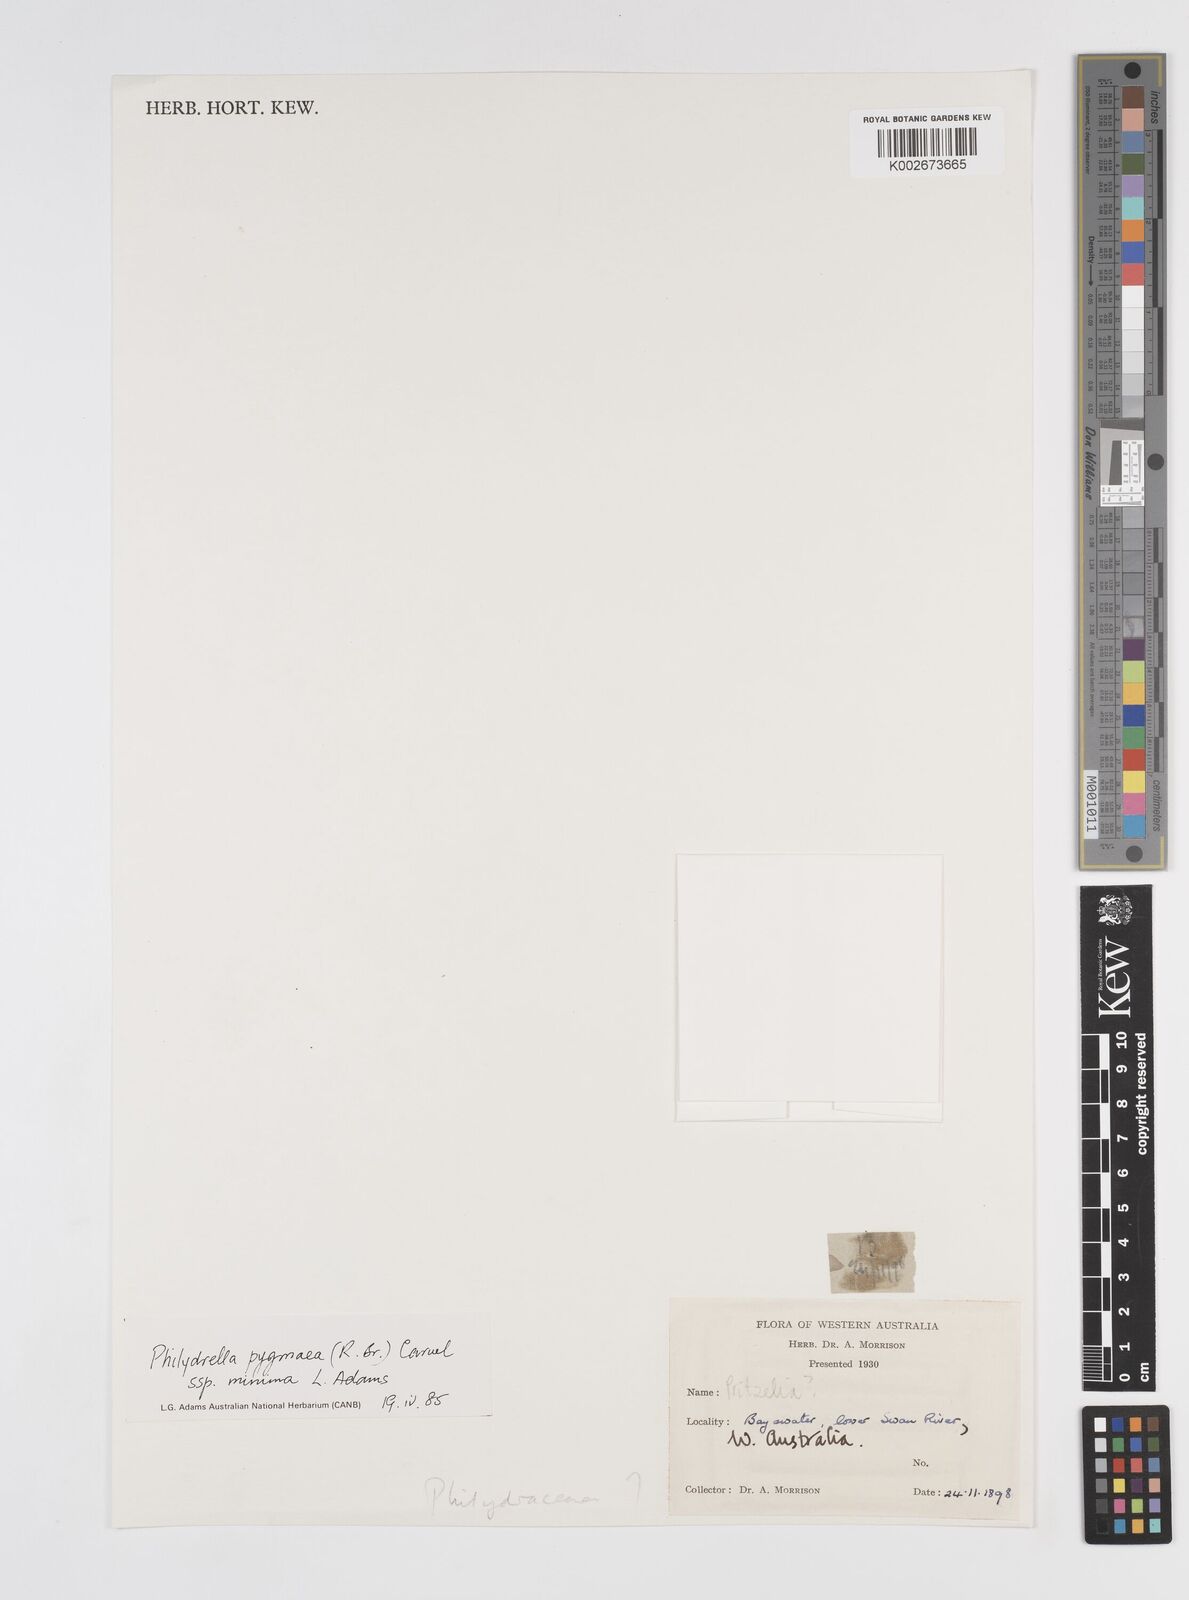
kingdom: Plantae
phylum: Tracheophyta
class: Liliopsida
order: Commelinales
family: Philydraceae
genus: Philydrella
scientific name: Philydrella pygmaea
